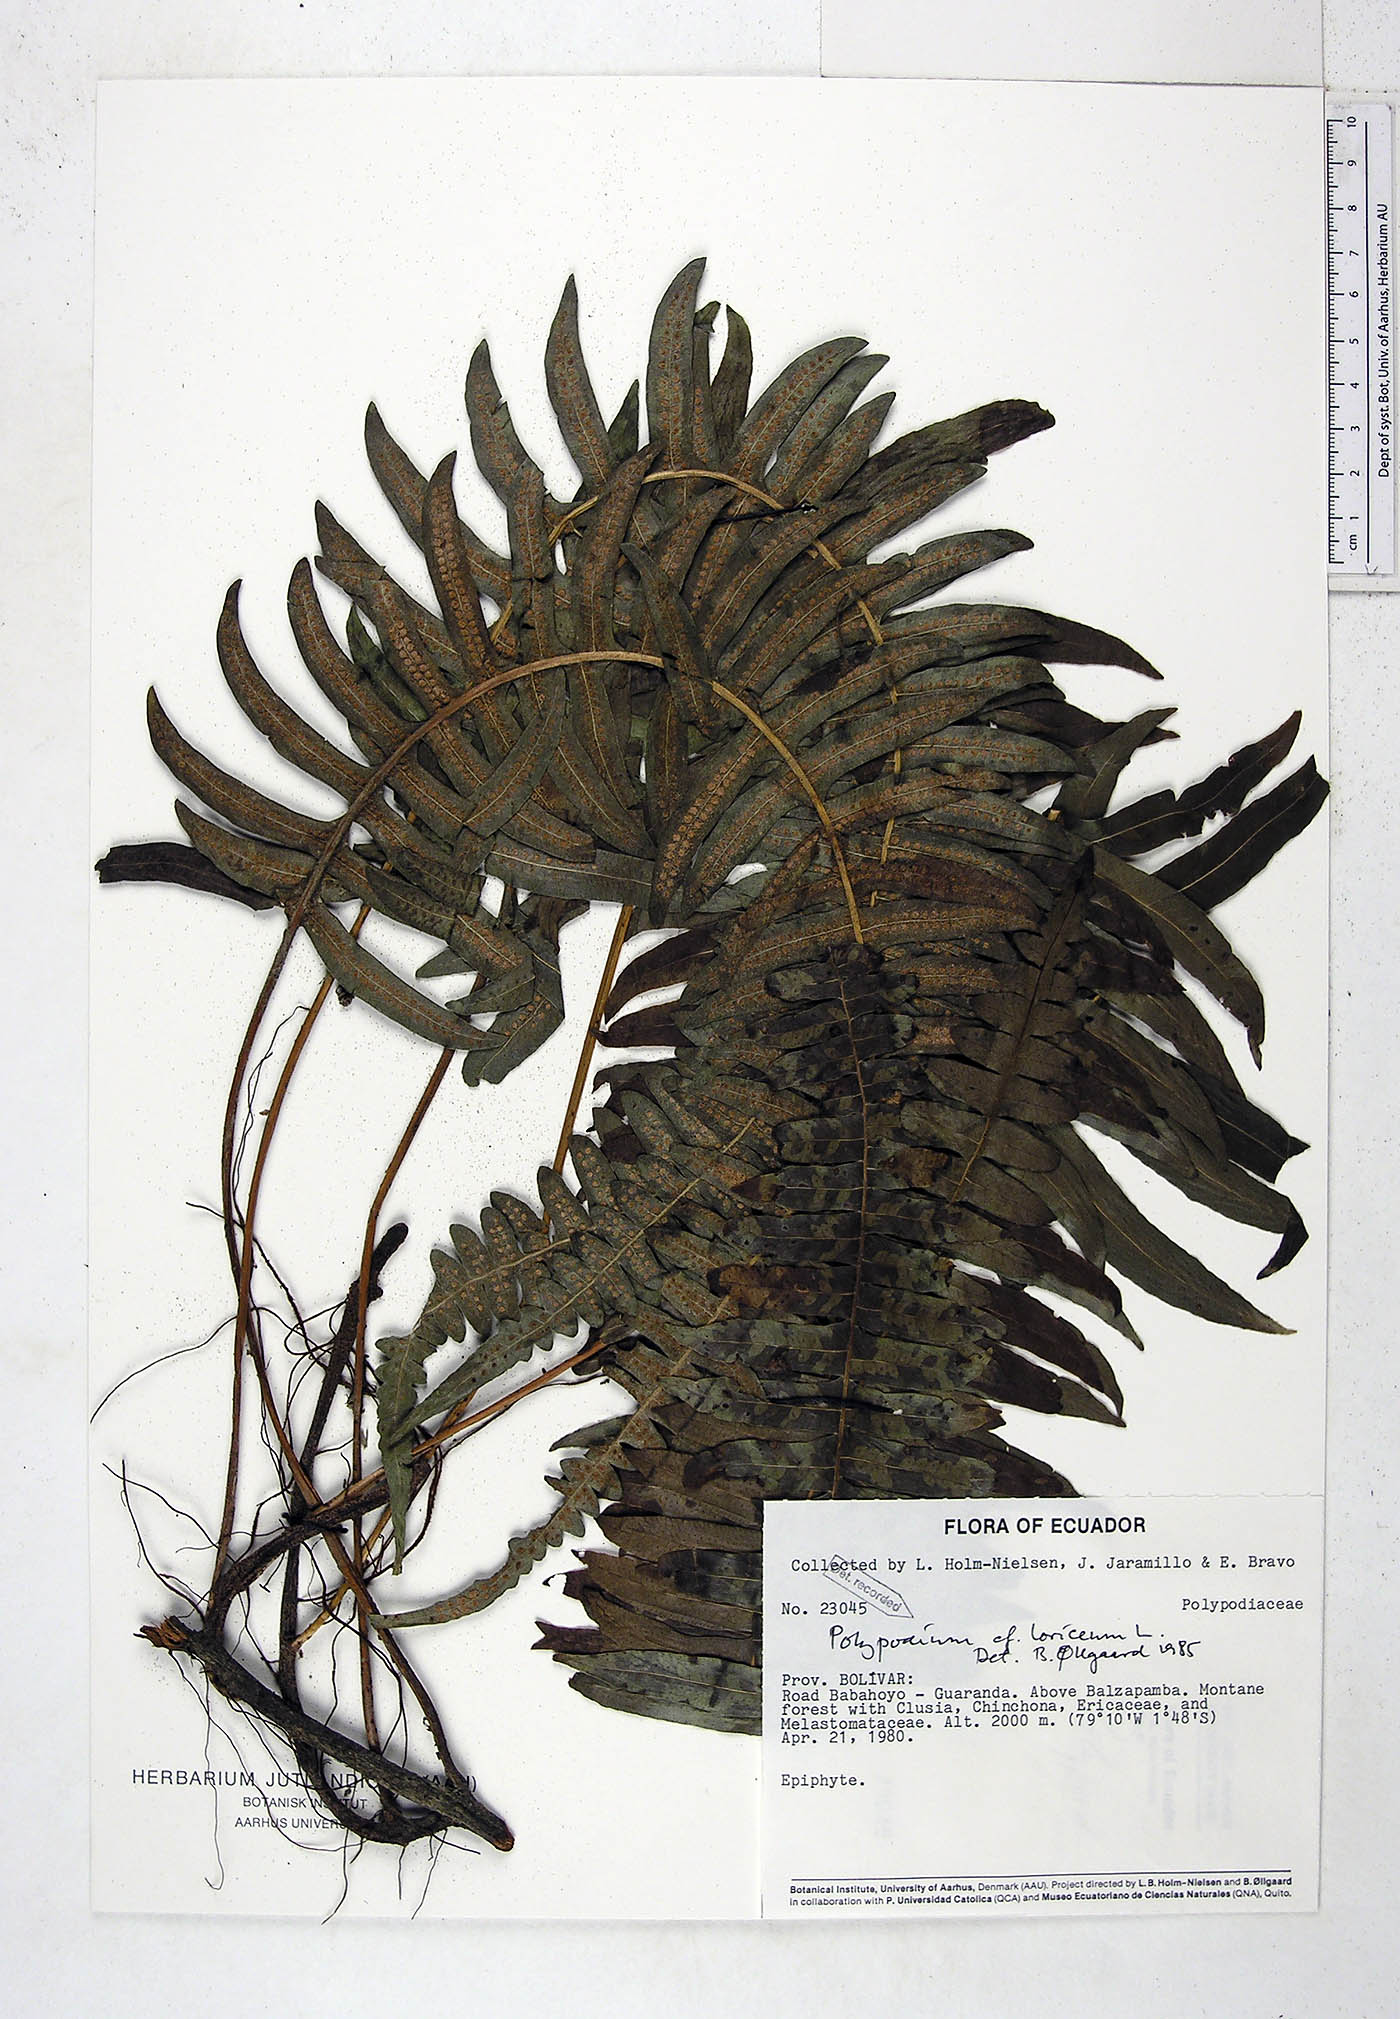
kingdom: Plantae
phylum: Tracheophyta
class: Polypodiopsida
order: Polypodiales
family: Polypodiaceae
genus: Serpocaulon
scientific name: Serpocaulon loriceum
